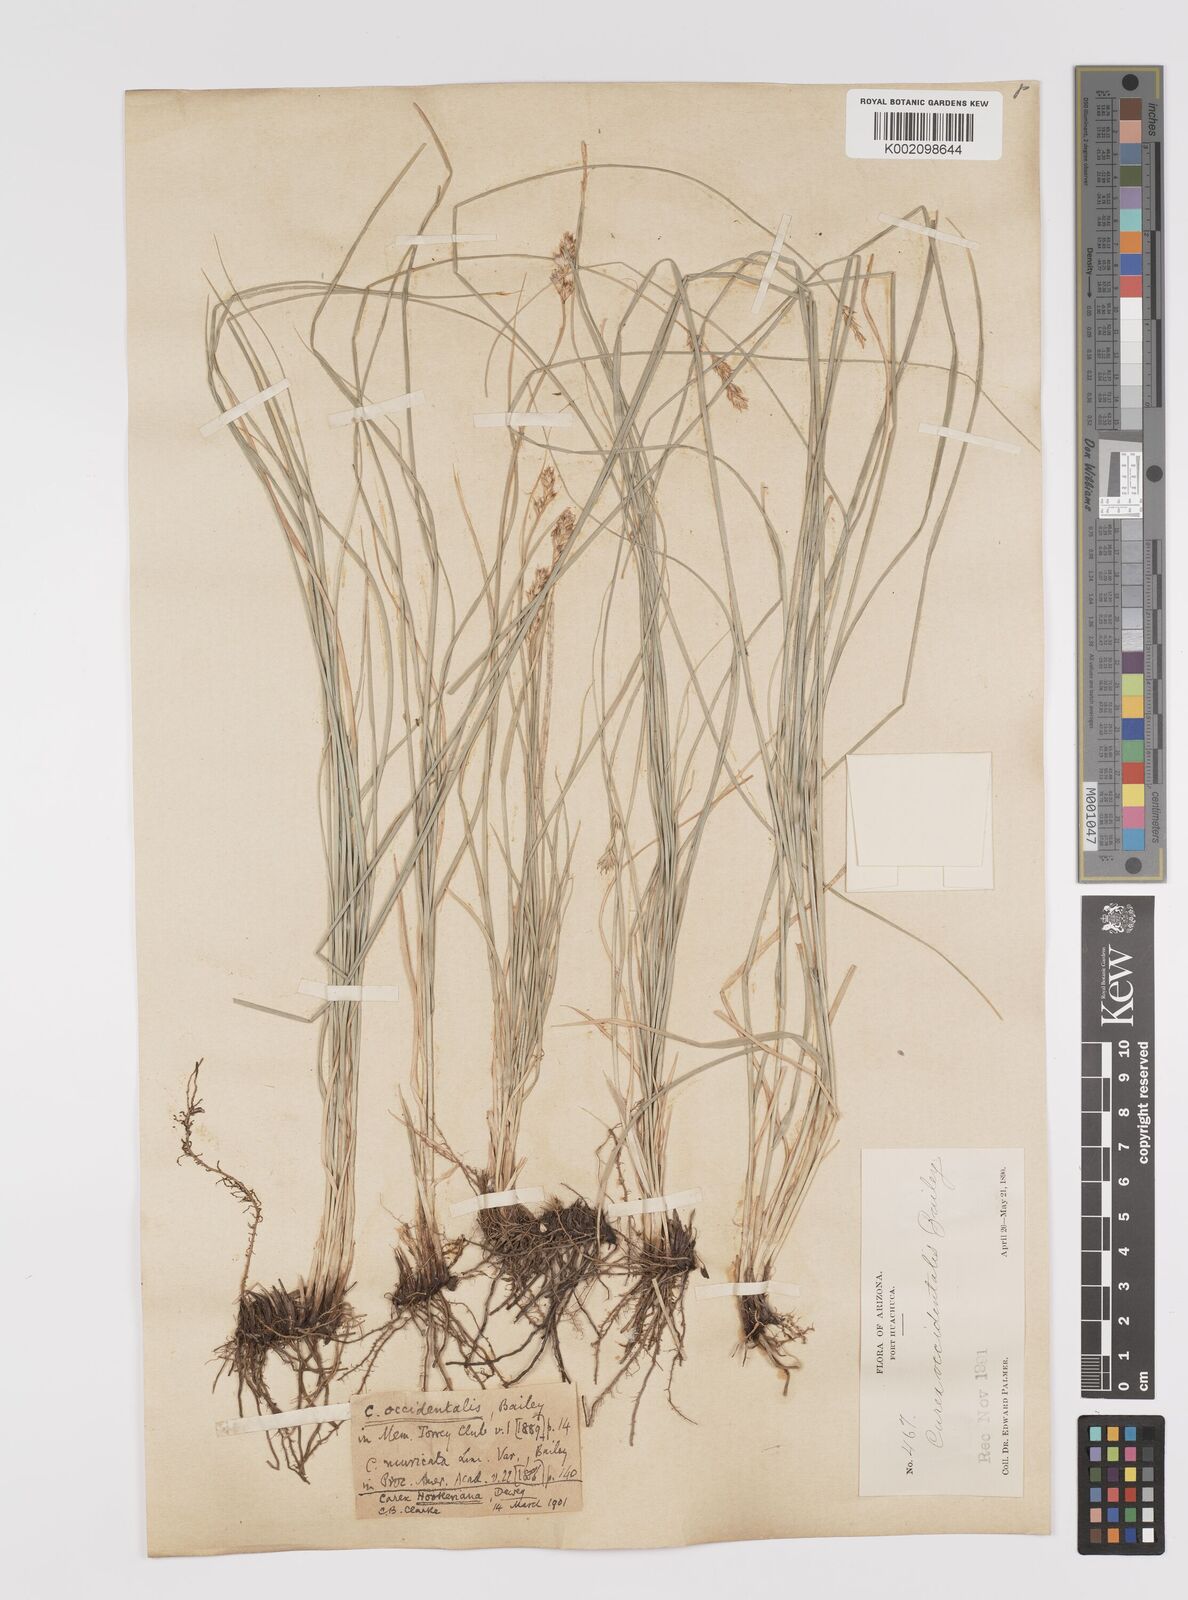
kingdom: Plantae
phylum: Tracheophyta
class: Liliopsida
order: Poales
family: Cyperaceae
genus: Carex
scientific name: Carex occidentalis
